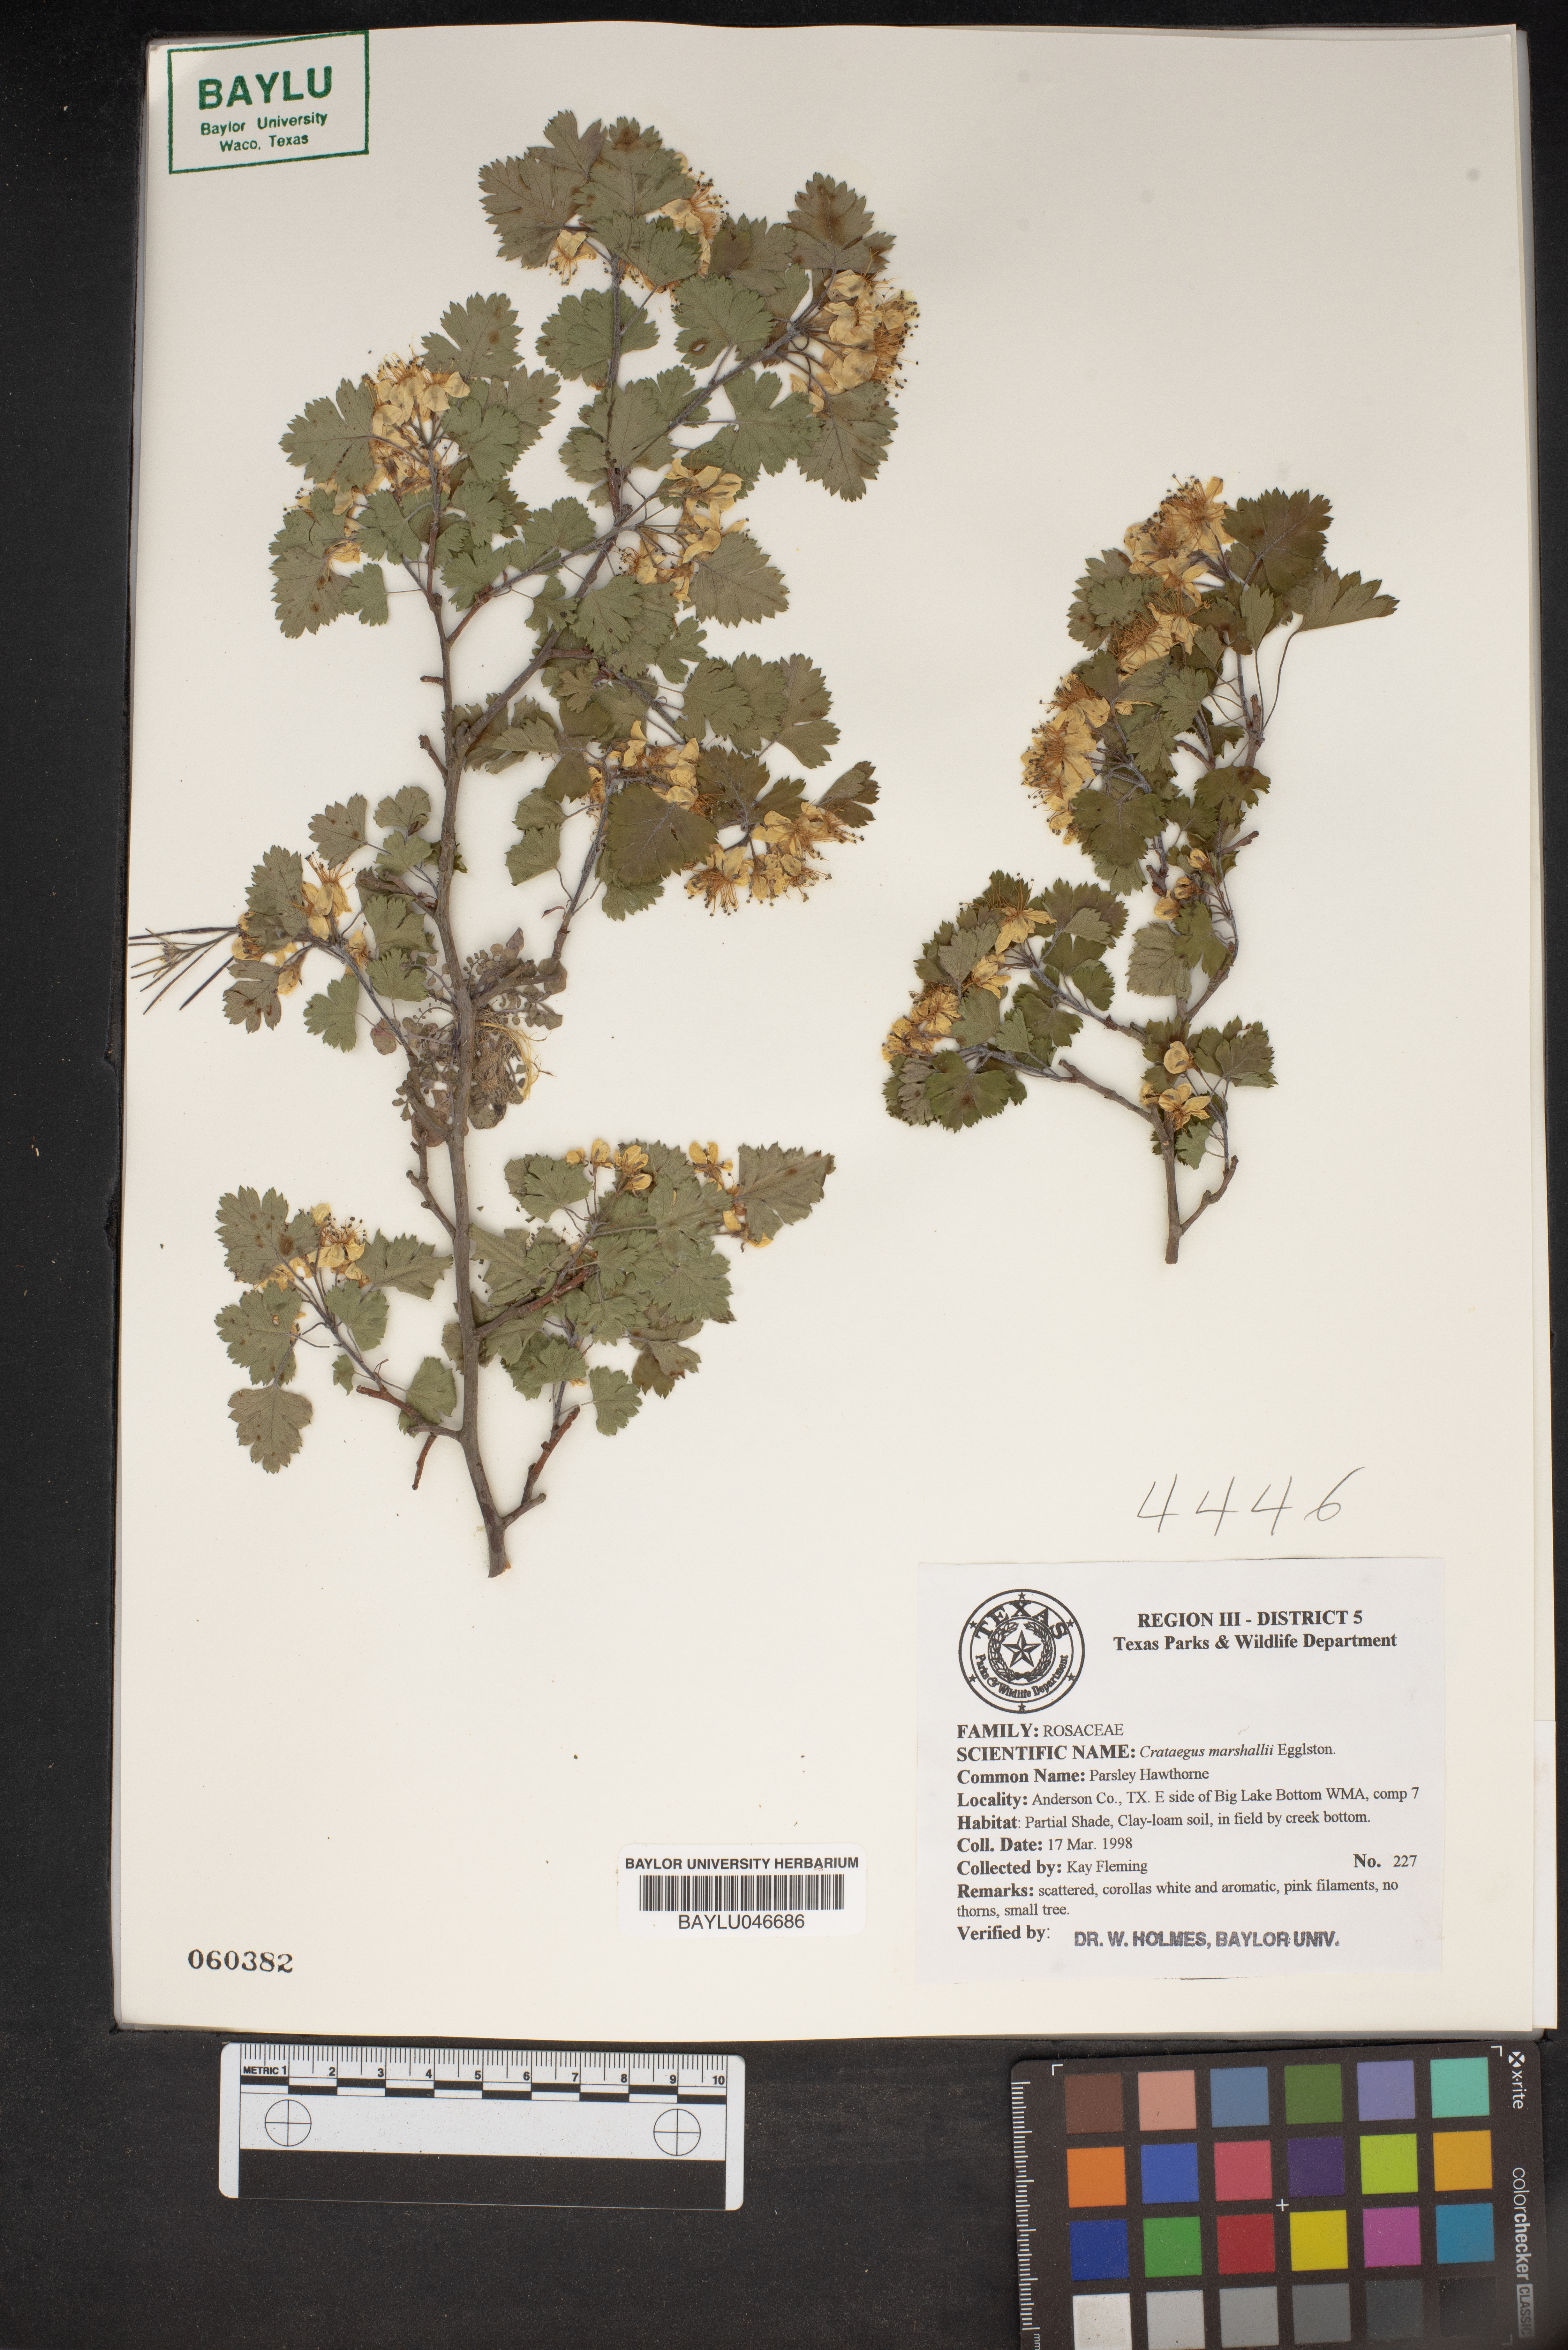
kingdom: Plantae
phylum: Tracheophyta
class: Magnoliopsida
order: Rosales
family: Rosaceae
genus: Crataegus
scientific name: Crataegus marshallii
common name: Parsley-hawthorn
